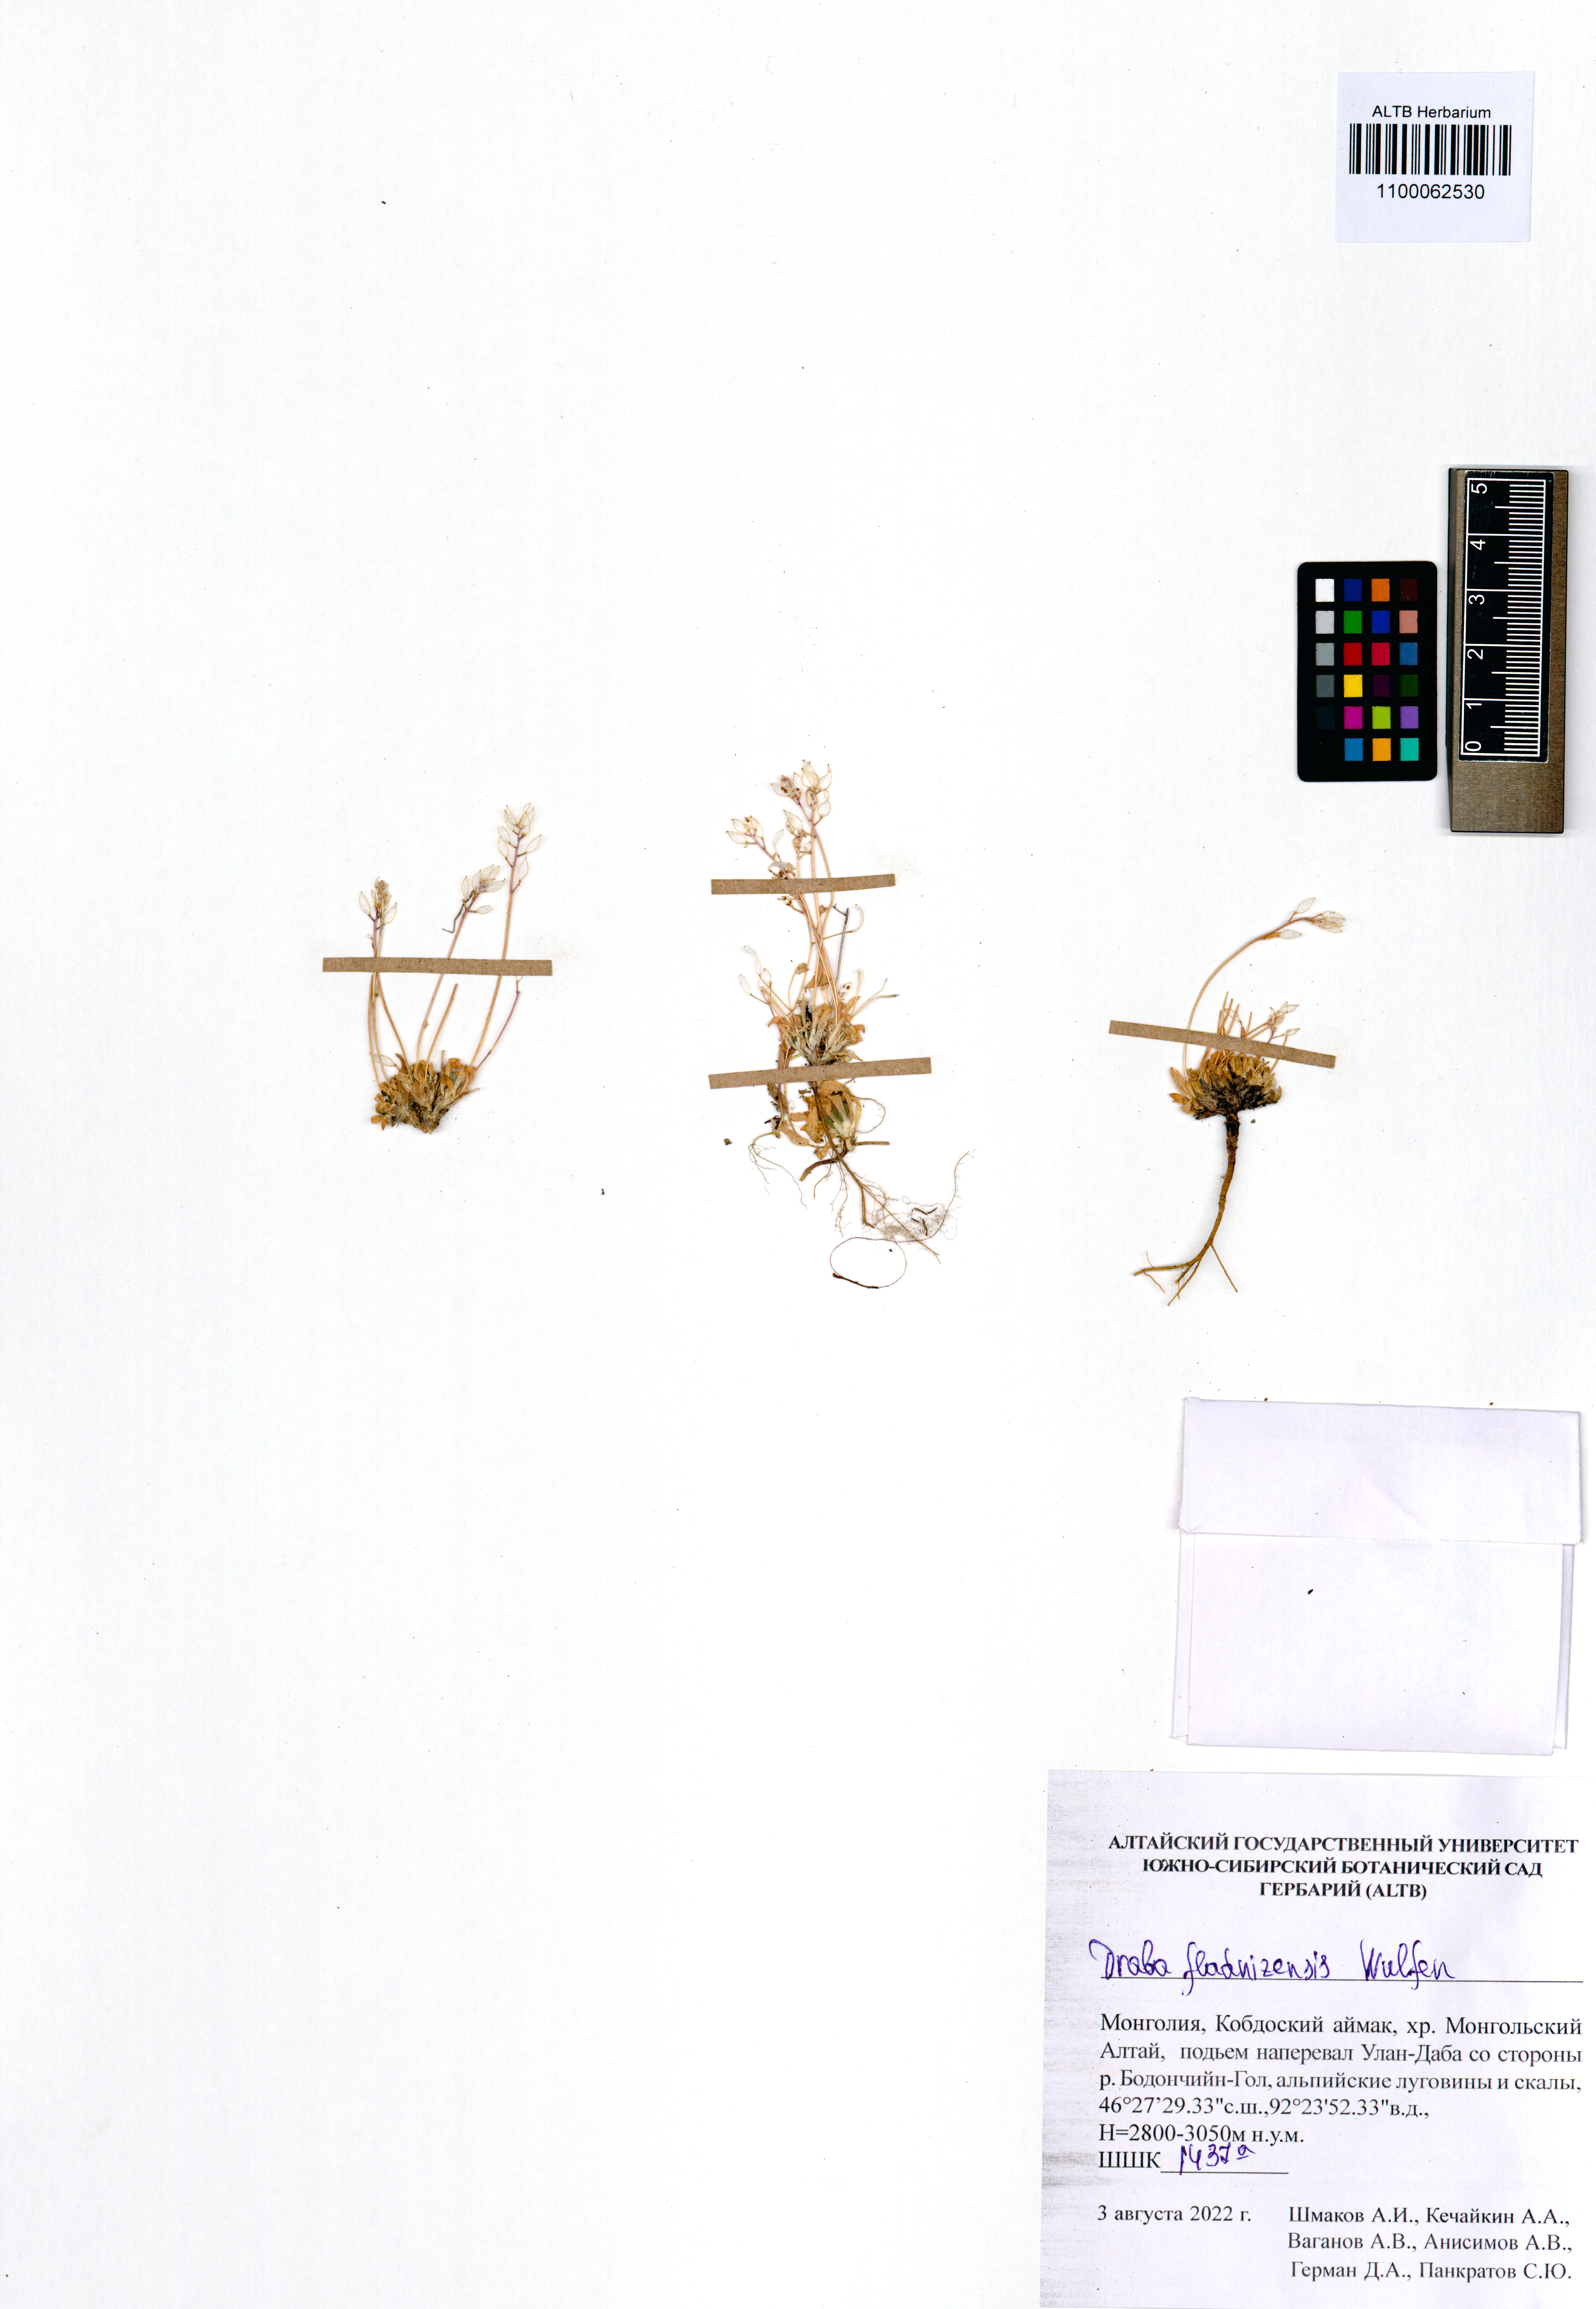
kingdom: Plantae
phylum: Tracheophyta
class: Magnoliopsida
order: Brassicales
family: Brassicaceae
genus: Draba
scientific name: Draba fladnizensis
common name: Austrian draba
